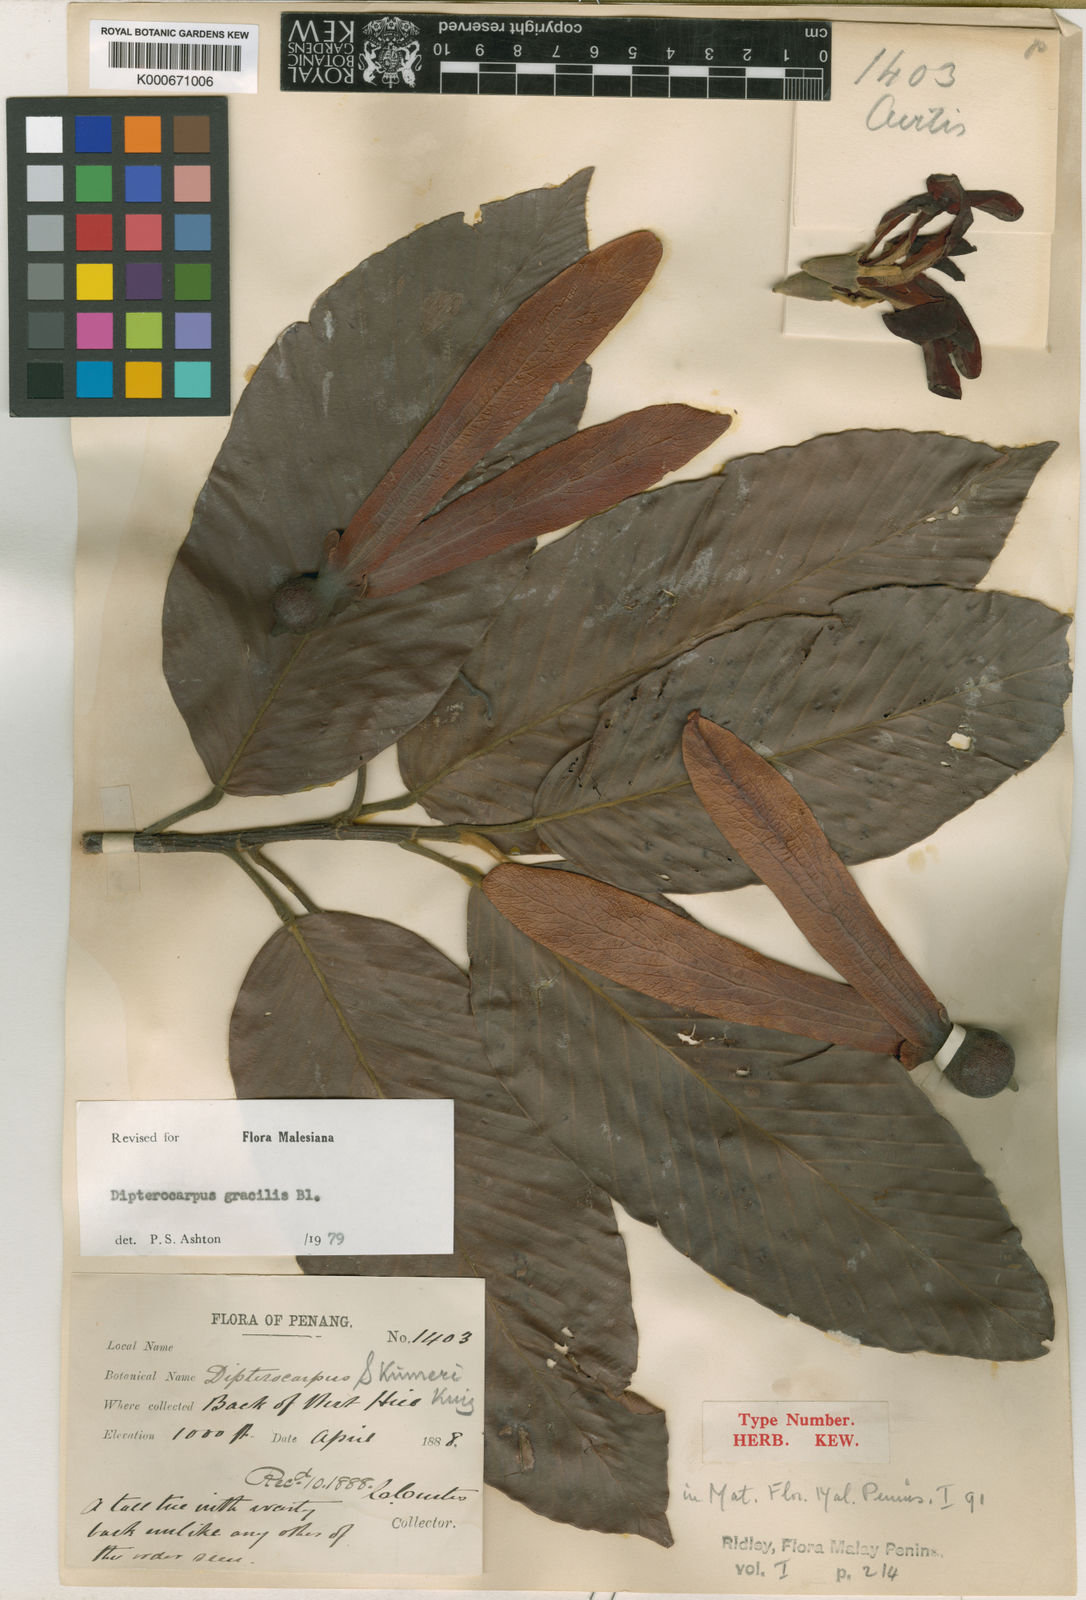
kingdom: Plantae
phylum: Tracheophyta
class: Magnoliopsida
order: Malvales
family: Dipterocarpaceae
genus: Dipterocarpus
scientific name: Dipterocarpus gracilis
